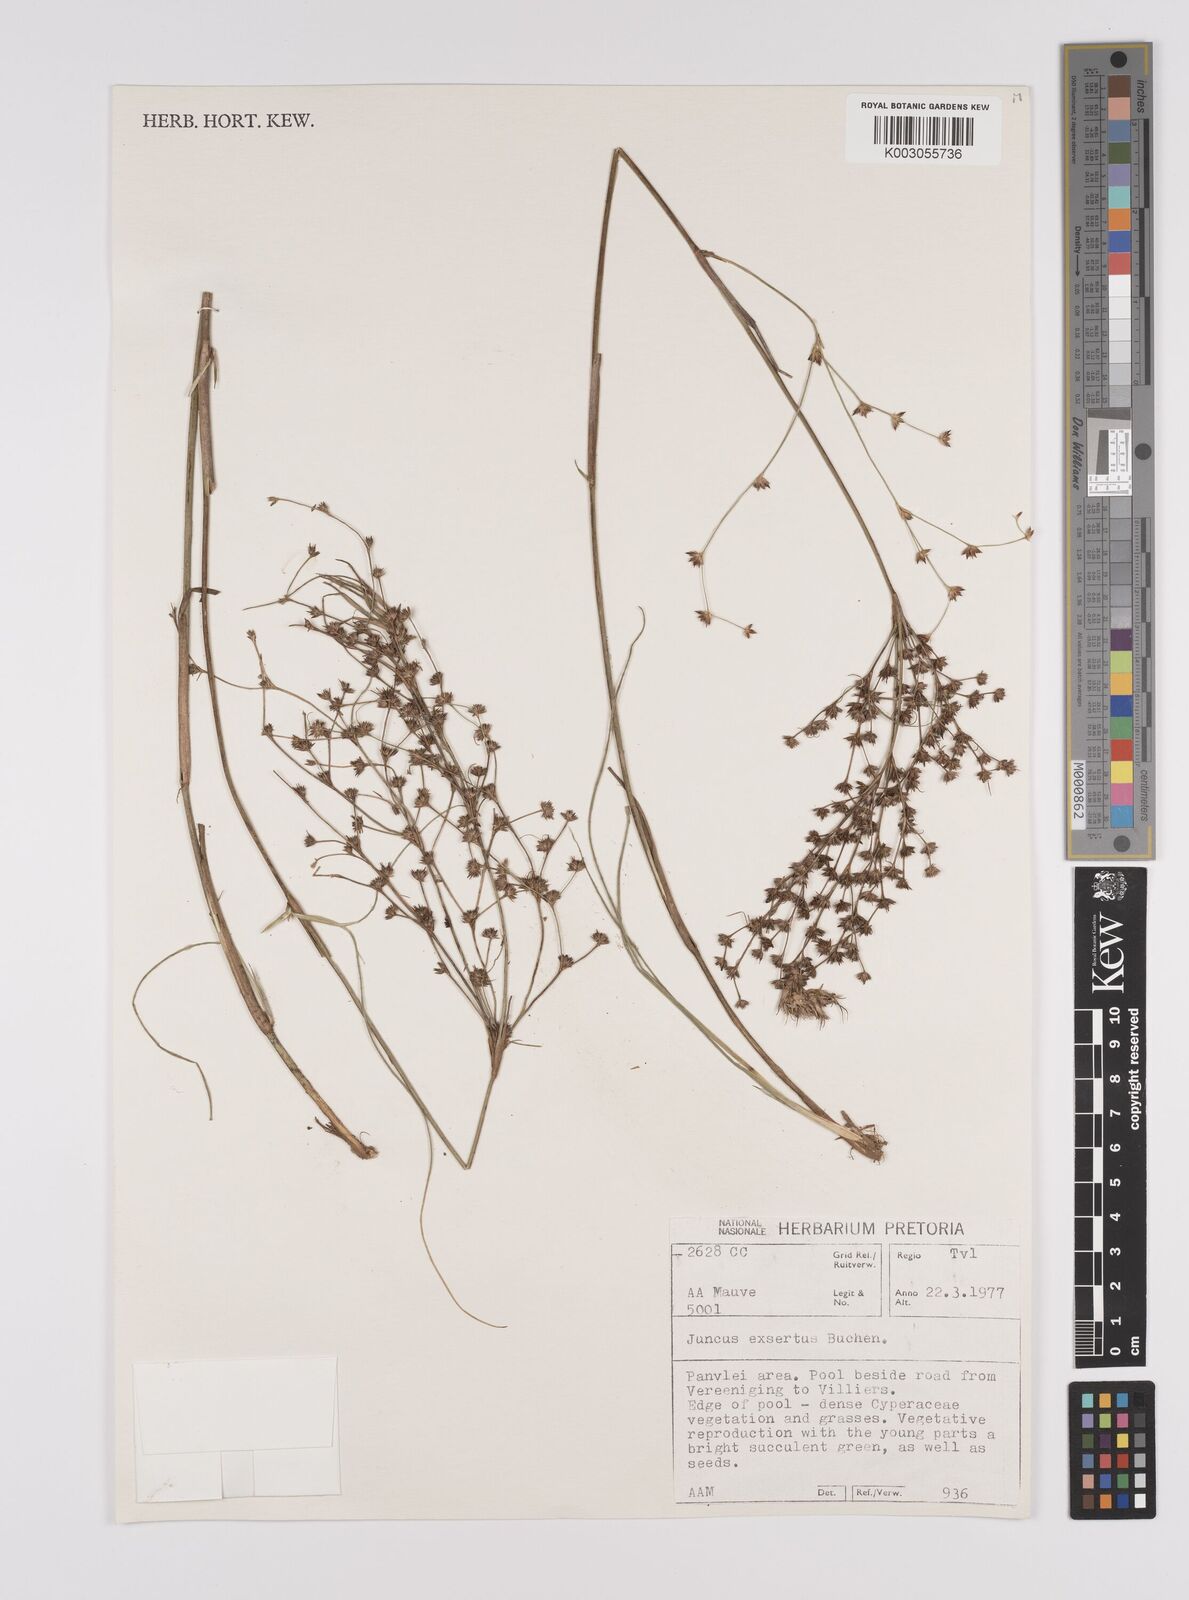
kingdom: Plantae
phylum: Tracheophyta
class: Liliopsida
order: Poales
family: Juncaceae
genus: Juncus
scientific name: Juncus exsertus
